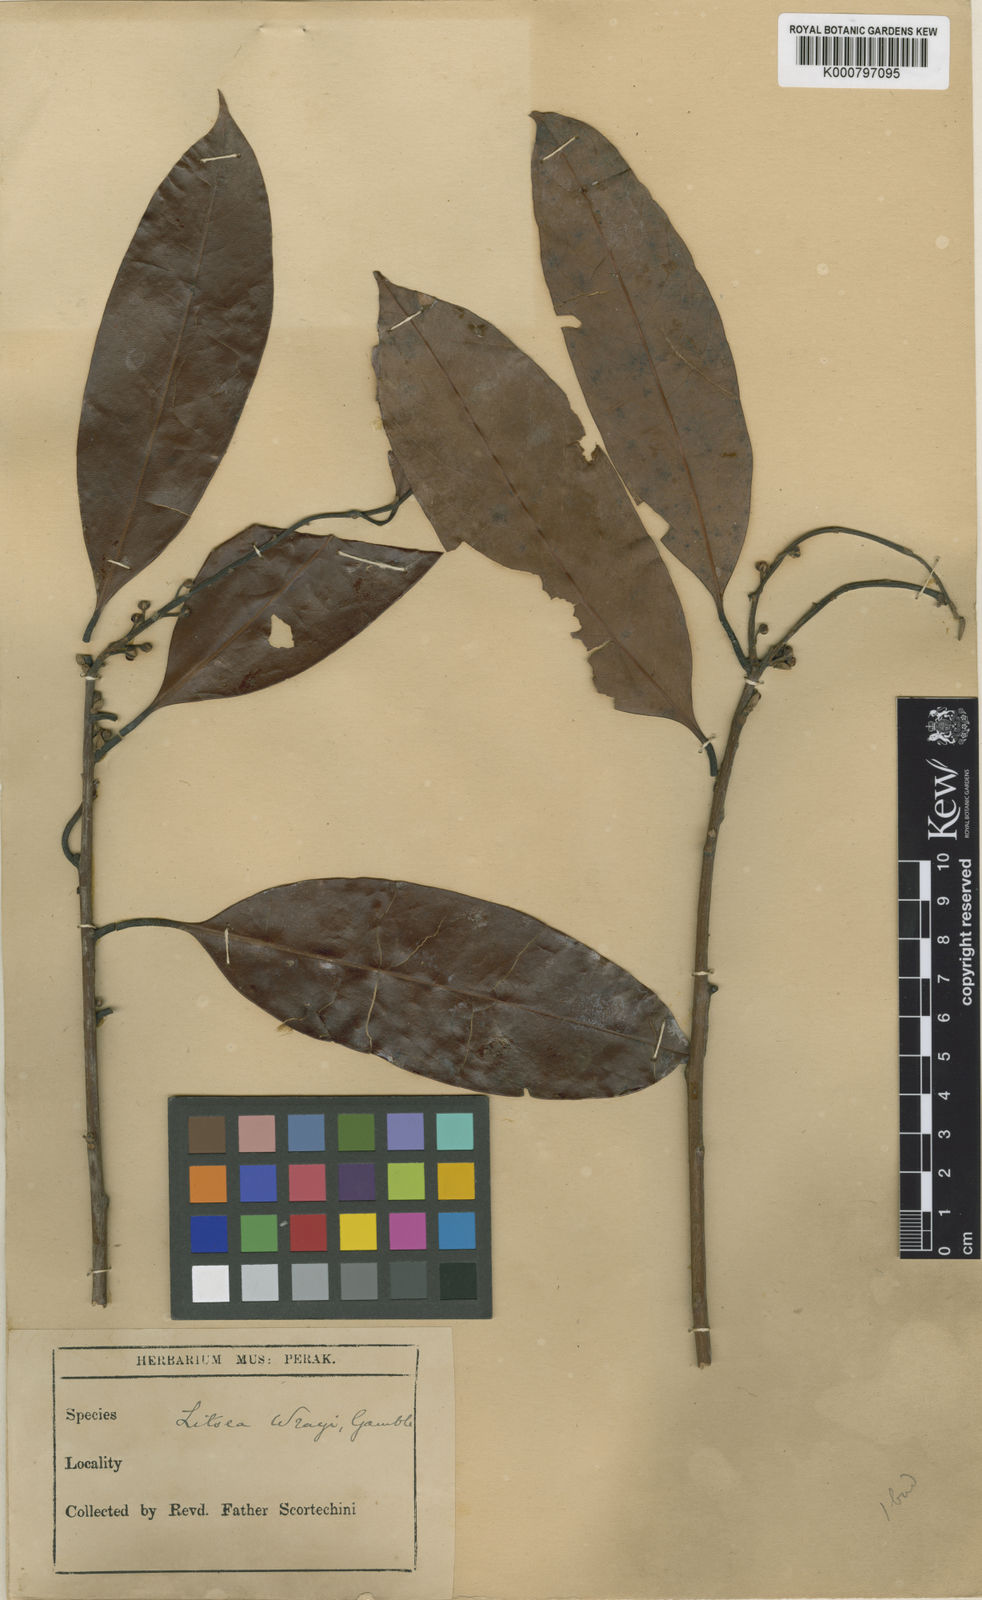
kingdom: Plantae
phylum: Tracheophyta
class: Magnoliopsida
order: Laurales
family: Lauraceae
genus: Litsea
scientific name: Litsea accedens
